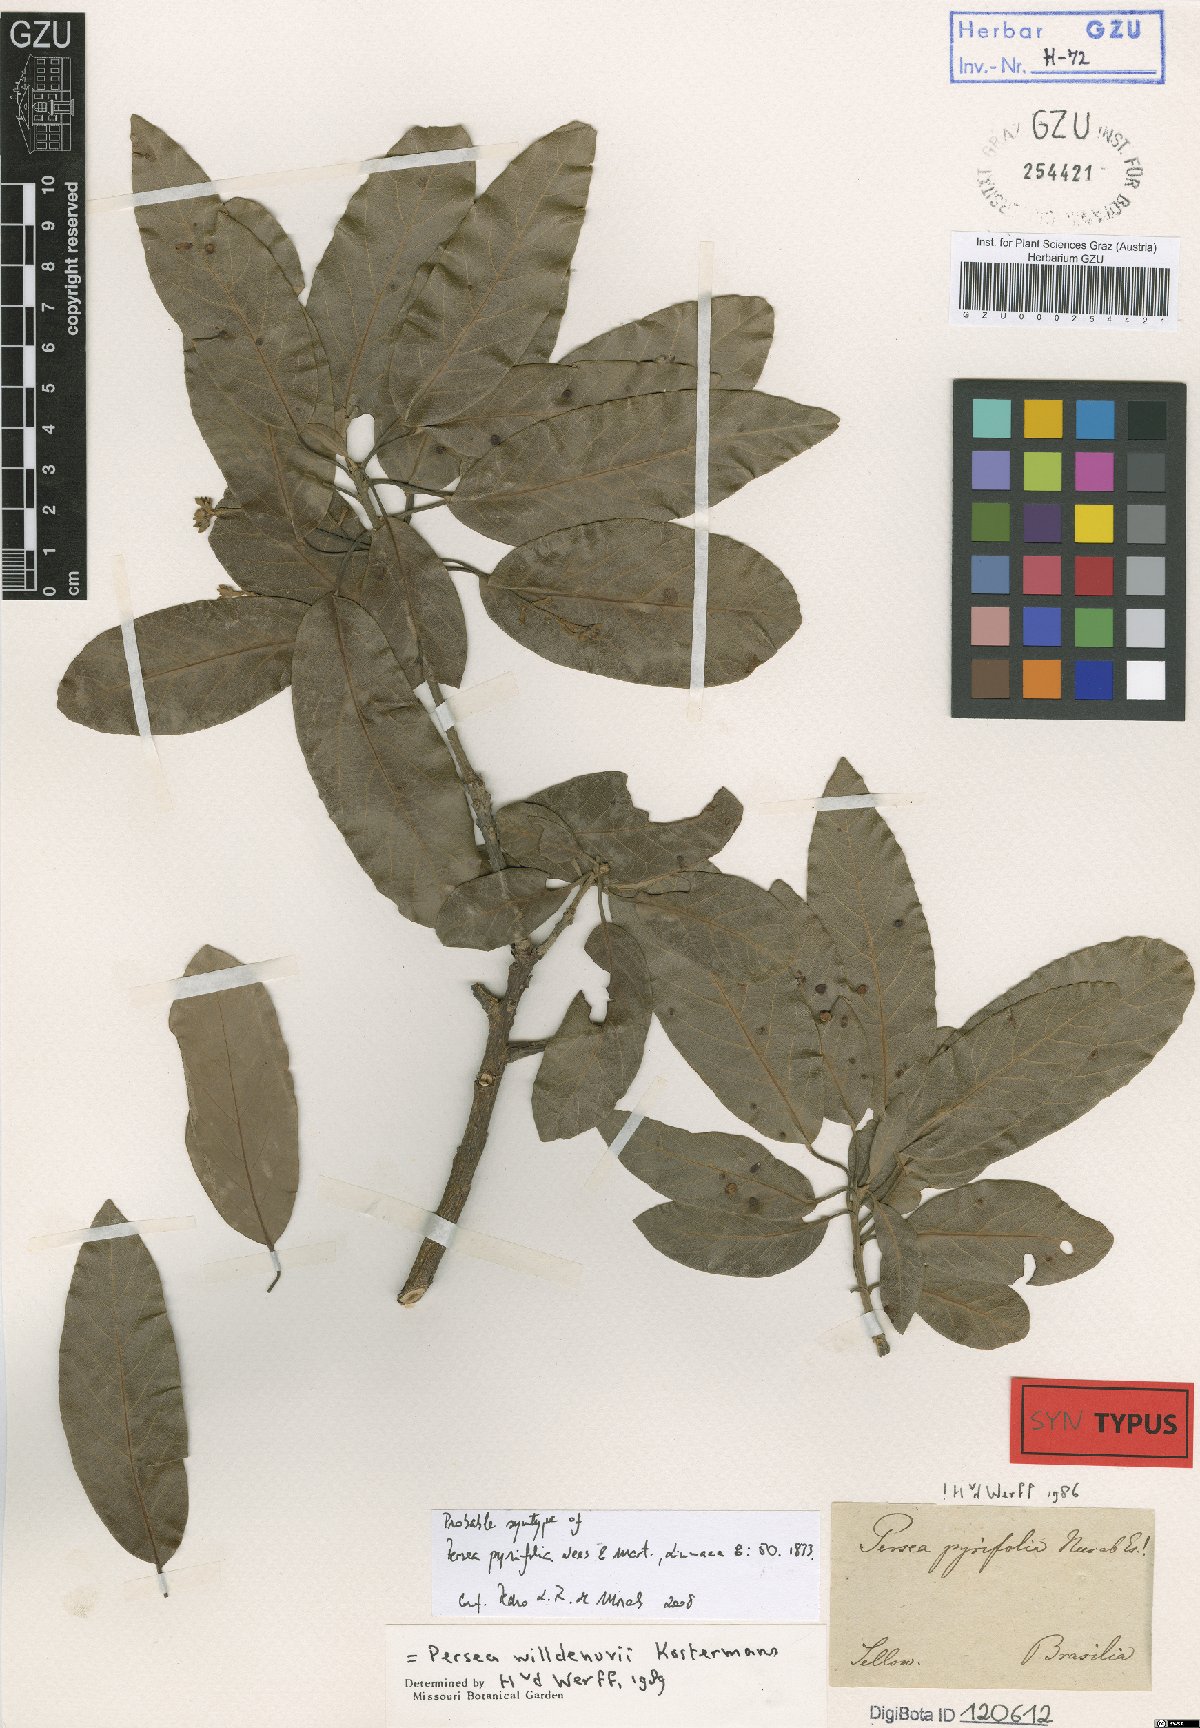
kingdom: Plantae
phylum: Tracheophyta
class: Magnoliopsida
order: Laurales
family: Lauraceae
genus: Persea
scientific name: Persea pyrifolia
